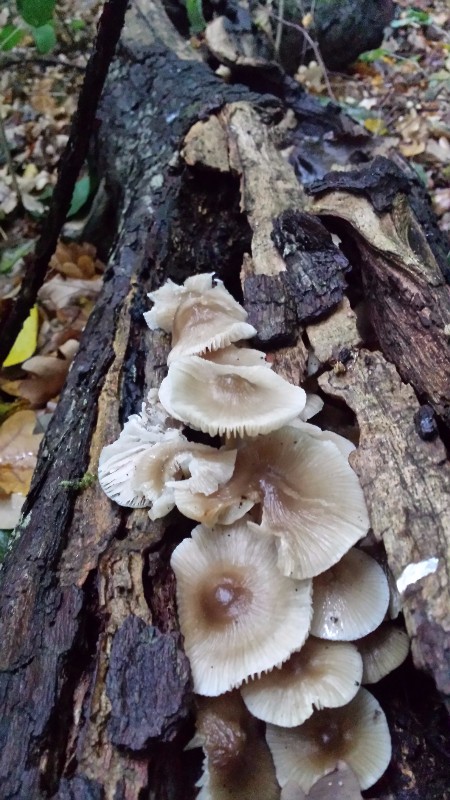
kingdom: Fungi
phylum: Basidiomycota
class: Agaricomycetes
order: Agaricales
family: Mycenaceae
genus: Mycena
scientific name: Mycena galericulata
